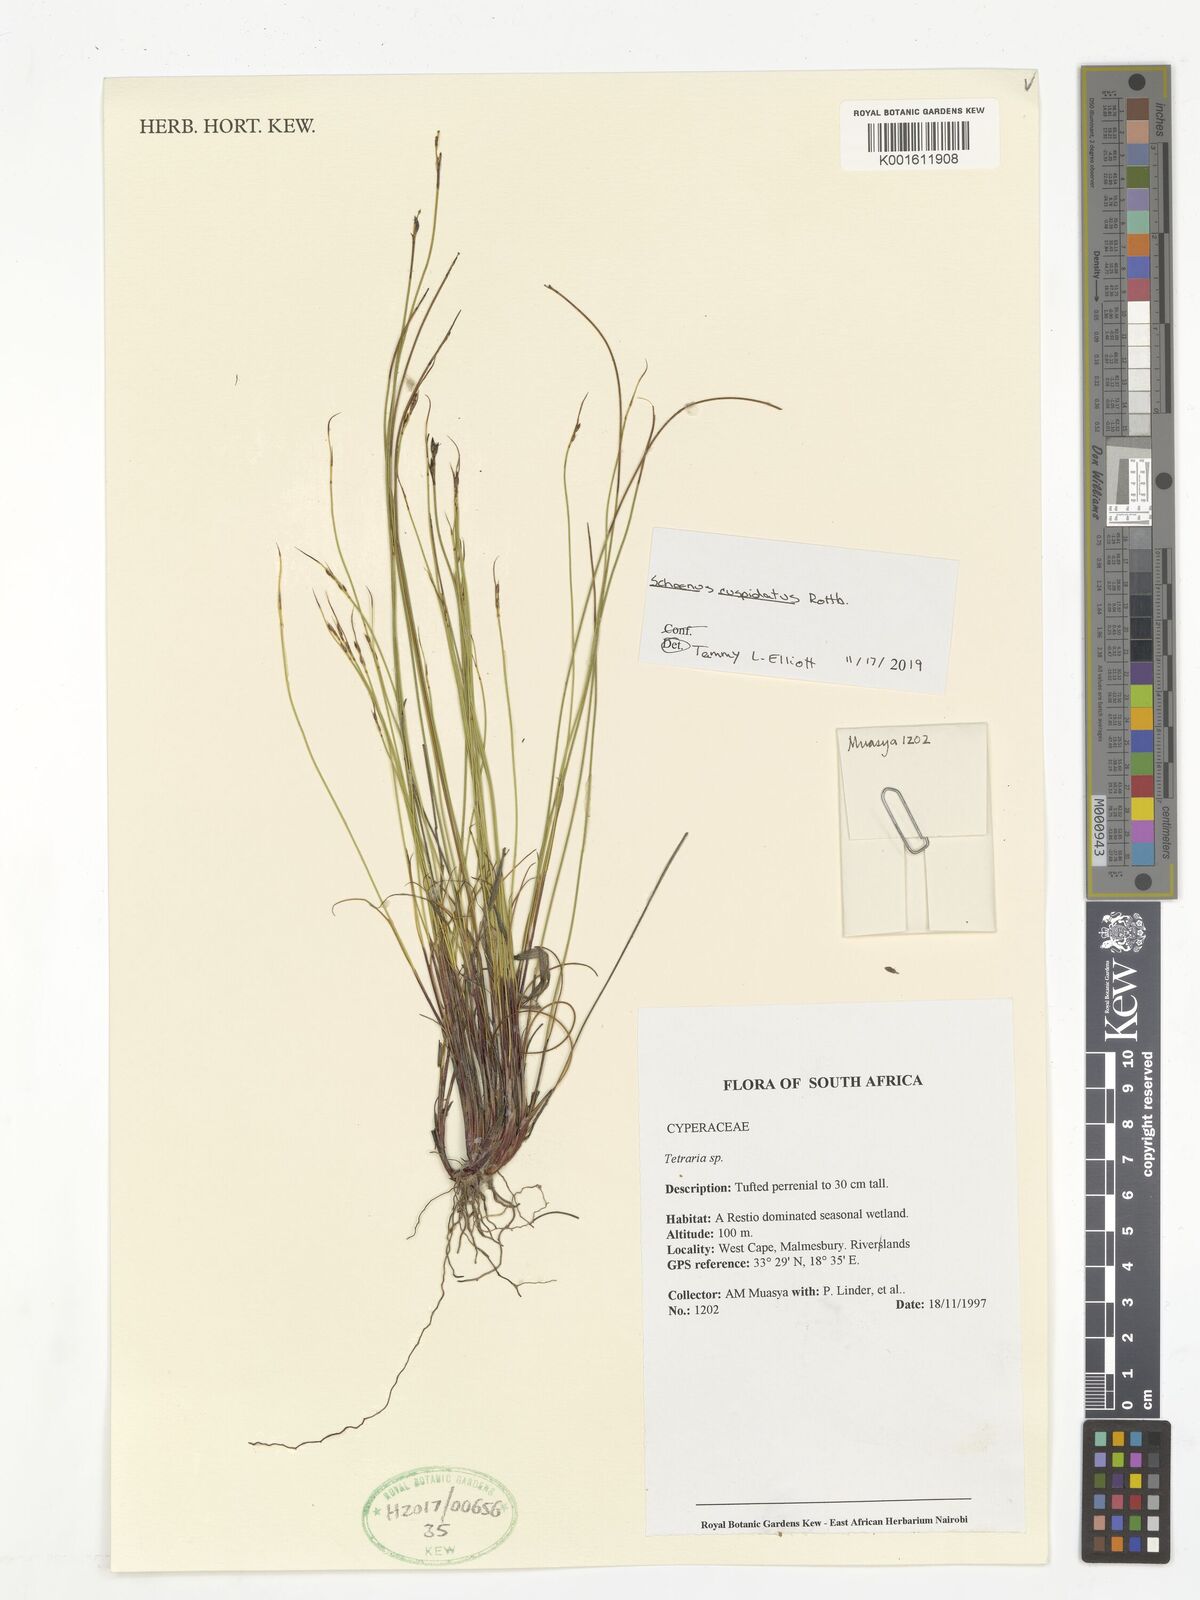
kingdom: Plantae
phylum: Tracheophyta
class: Liliopsida
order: Poales
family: Cyperaceae
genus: Schoenus
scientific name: Schoenus cuspidatus
